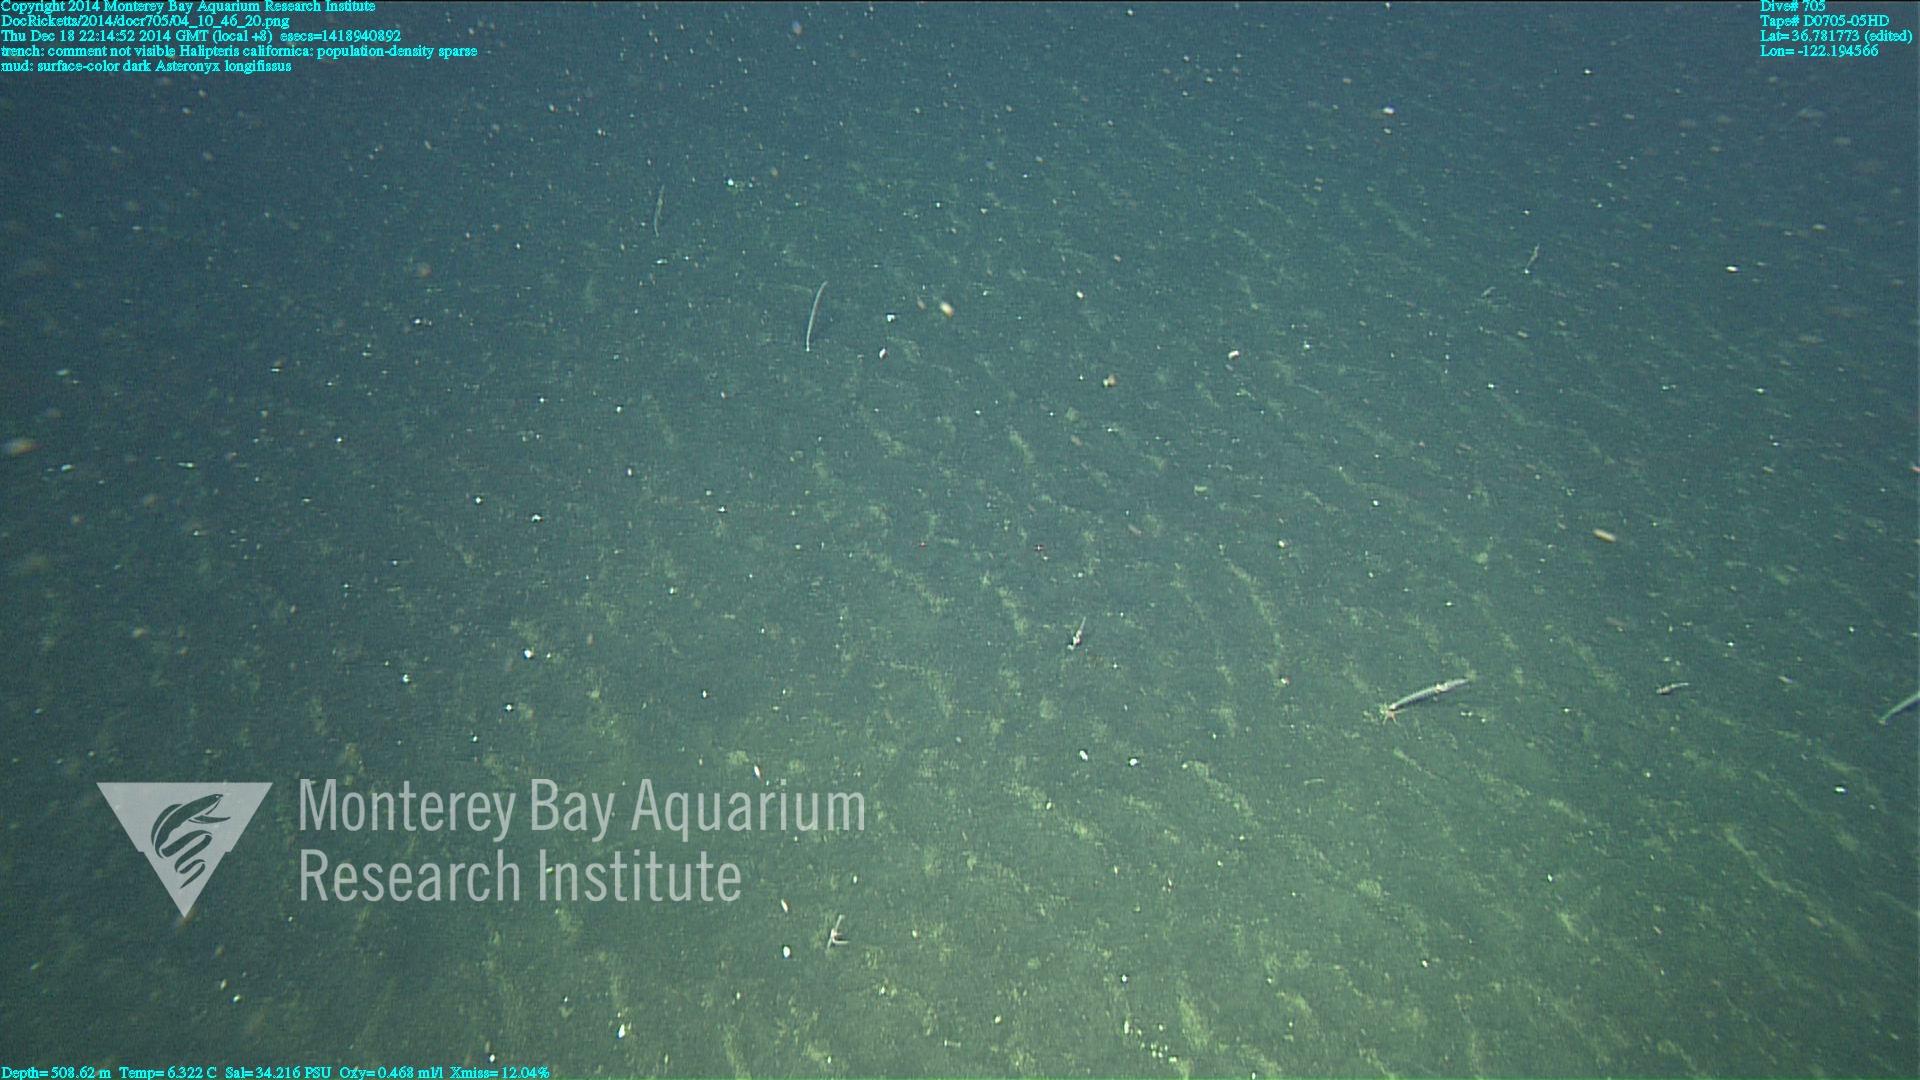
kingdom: Animalia
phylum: Cnidaria
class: Anthozoa
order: Scleralcyonacea
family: Balticinidae
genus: Balticina
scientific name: Balticina californica
